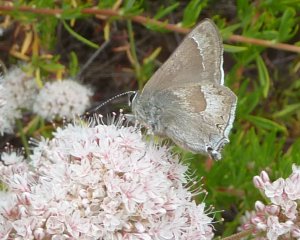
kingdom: Animalia
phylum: Arthropoda
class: Insecta
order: Lepidoptera
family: Lycaenidae
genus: Thecla
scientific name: Thecla tetra
